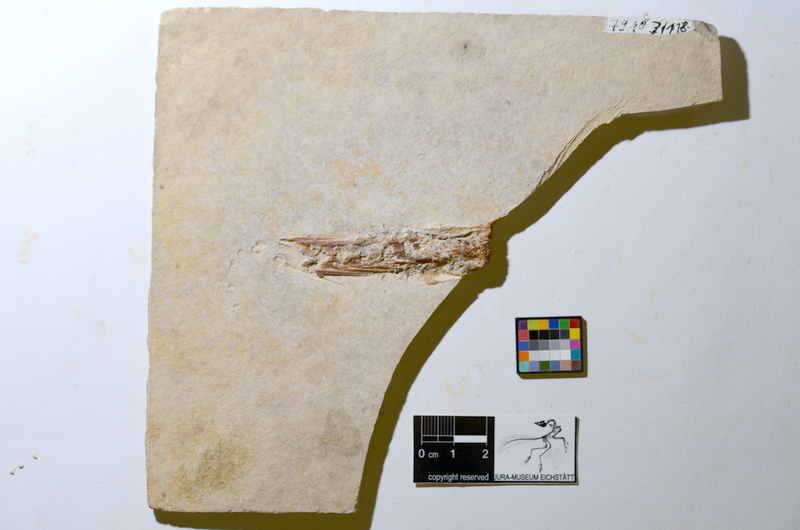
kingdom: Animalia
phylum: Chordata
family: Aspidorhynchidae
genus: Aspidorhynchus
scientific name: Aspidorhynchus
